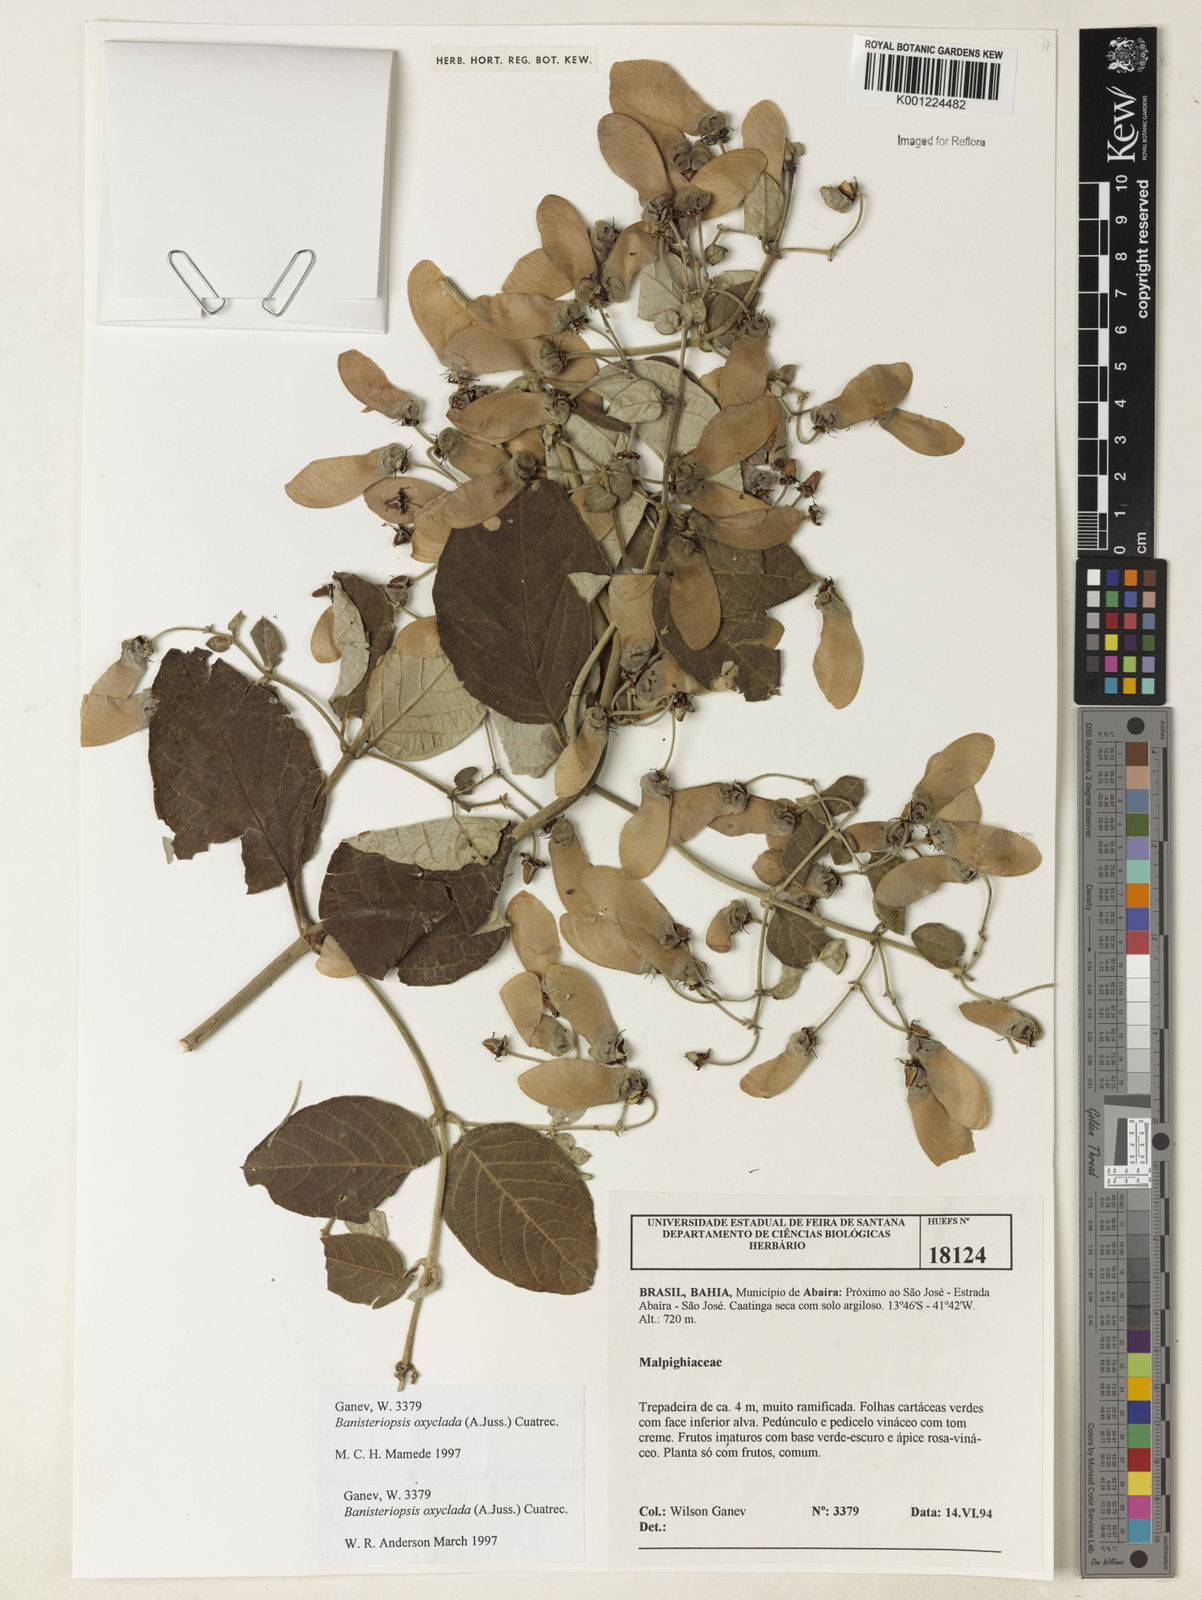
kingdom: Plantae
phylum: Tracheophyta
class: Magnoliopsida
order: Malpighiales
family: Malpighiaceae
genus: Banisteriopsis
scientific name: Banisteriopsis oxyclada
